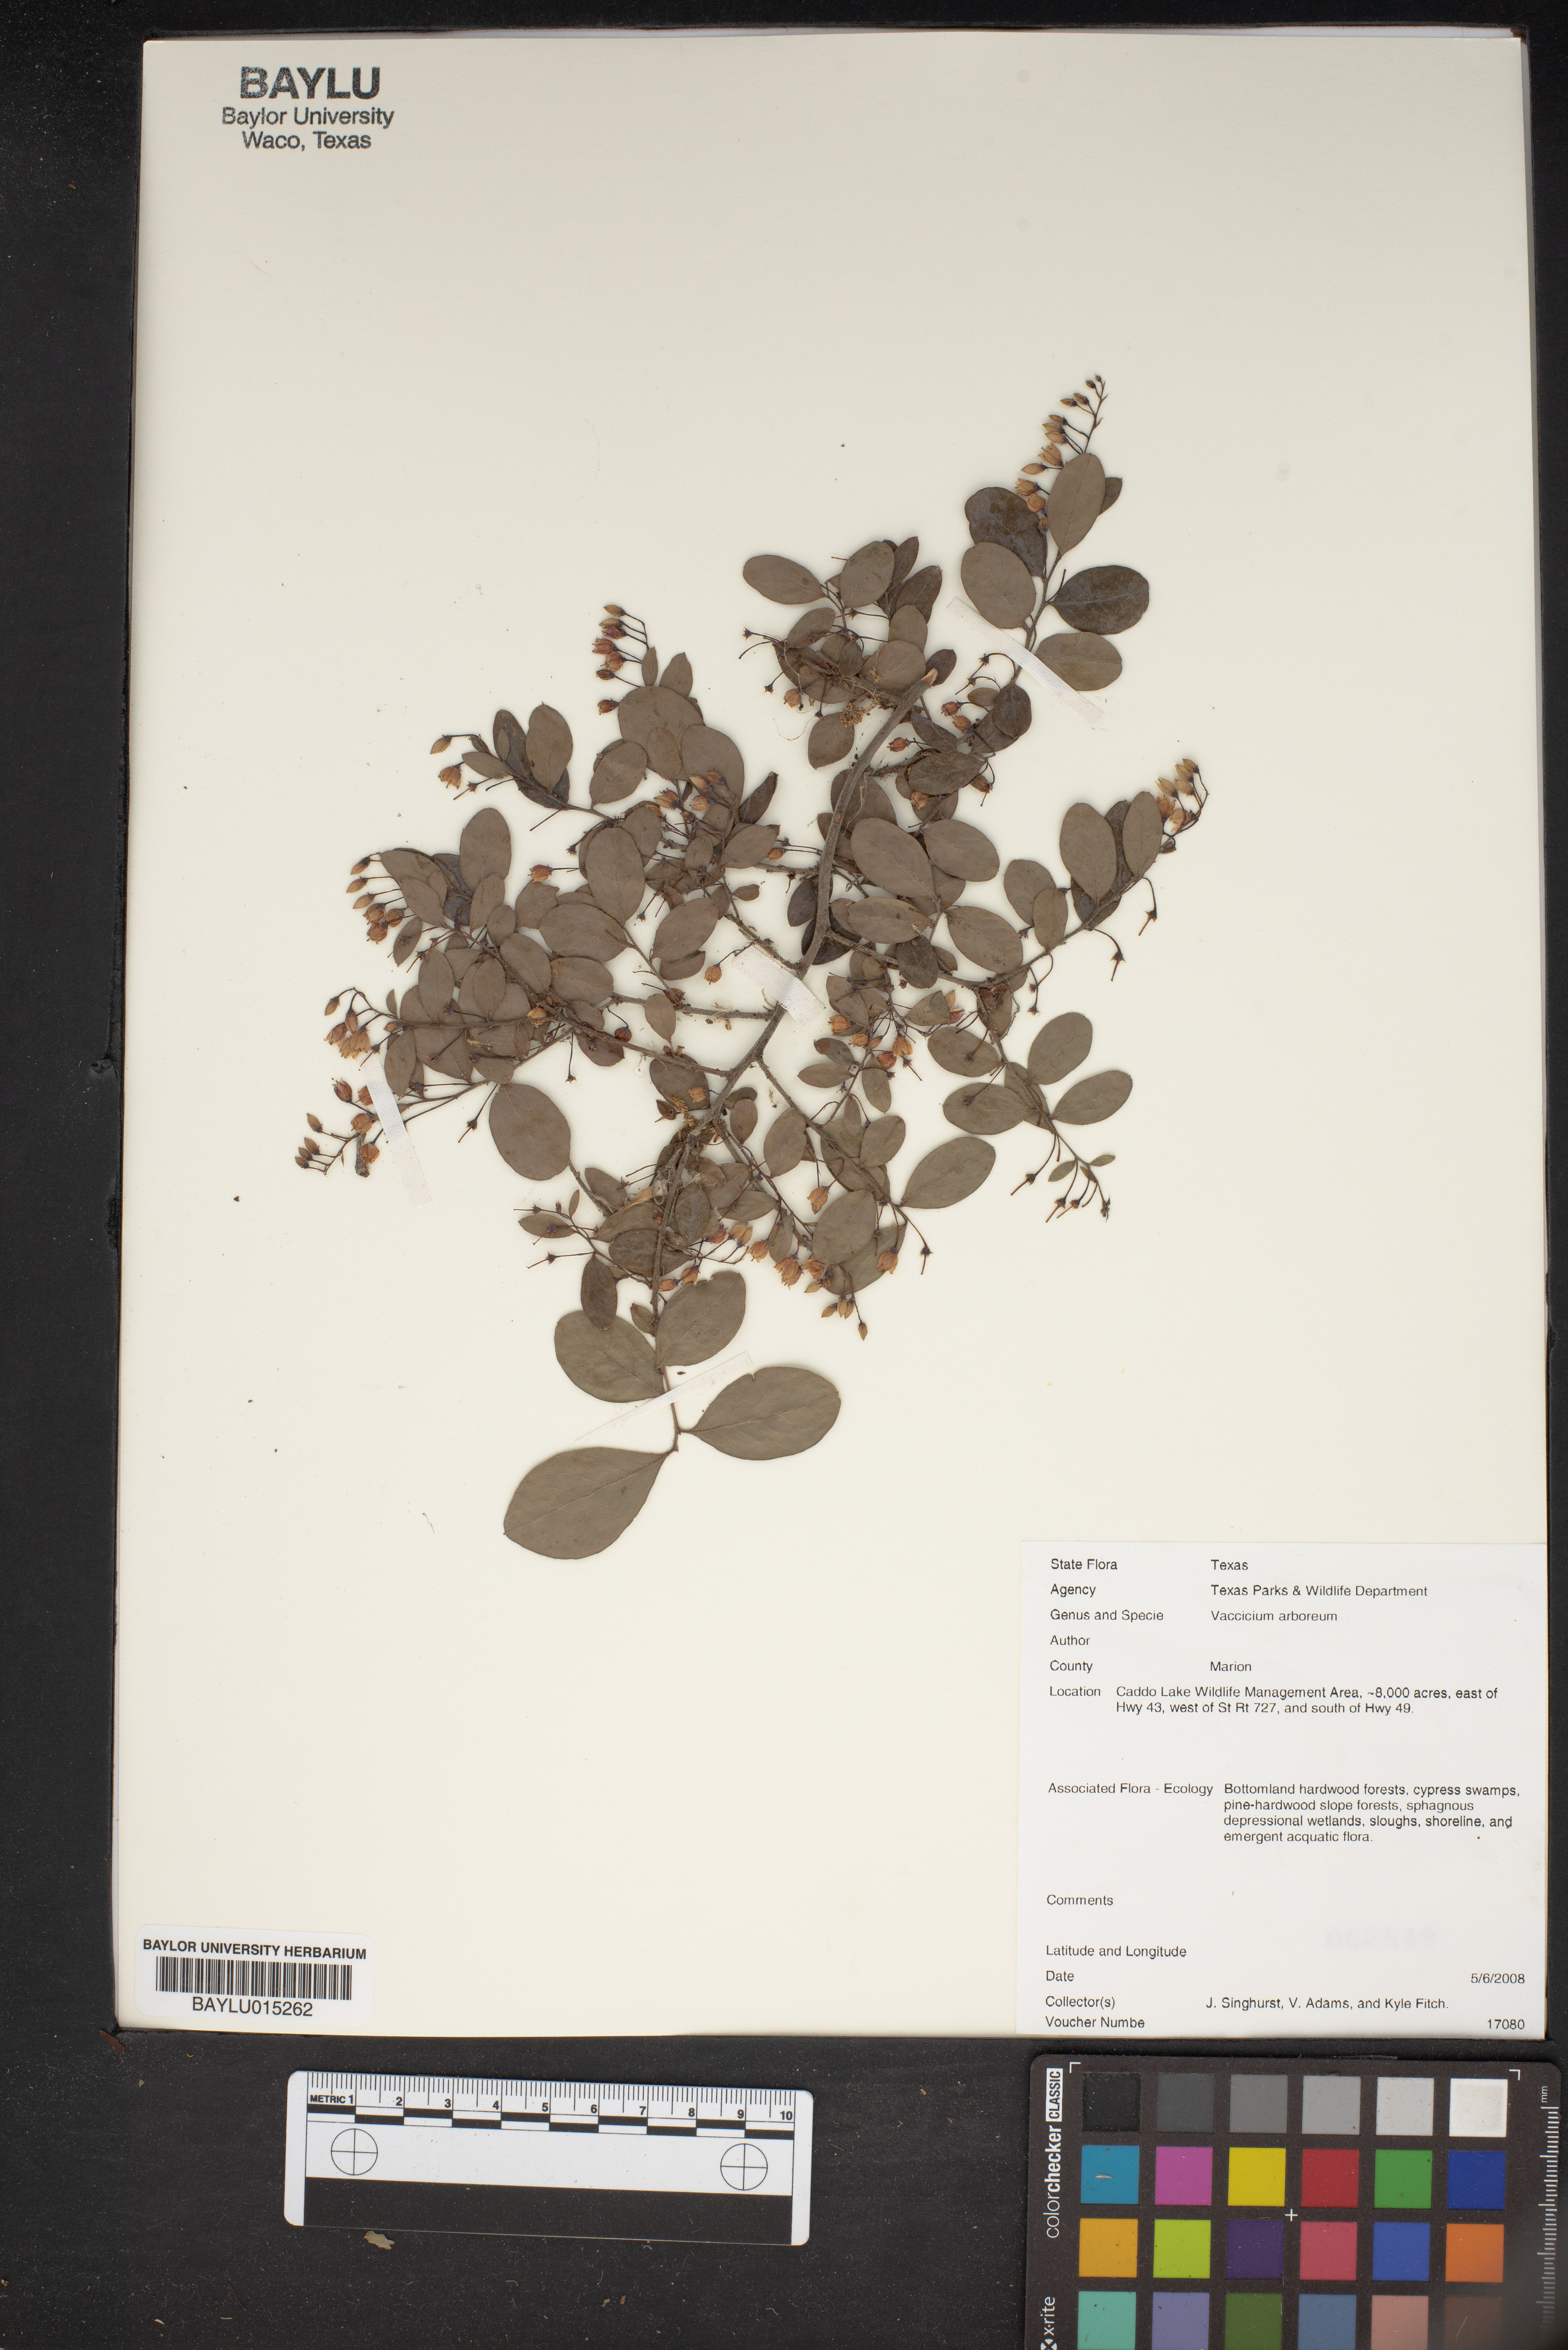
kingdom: Plantae
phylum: Tracheophyta
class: Magnoliopsida
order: Ericales
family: Ericaceae
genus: Vaccinium
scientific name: Vaccinium arboreum
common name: Farkleberry
